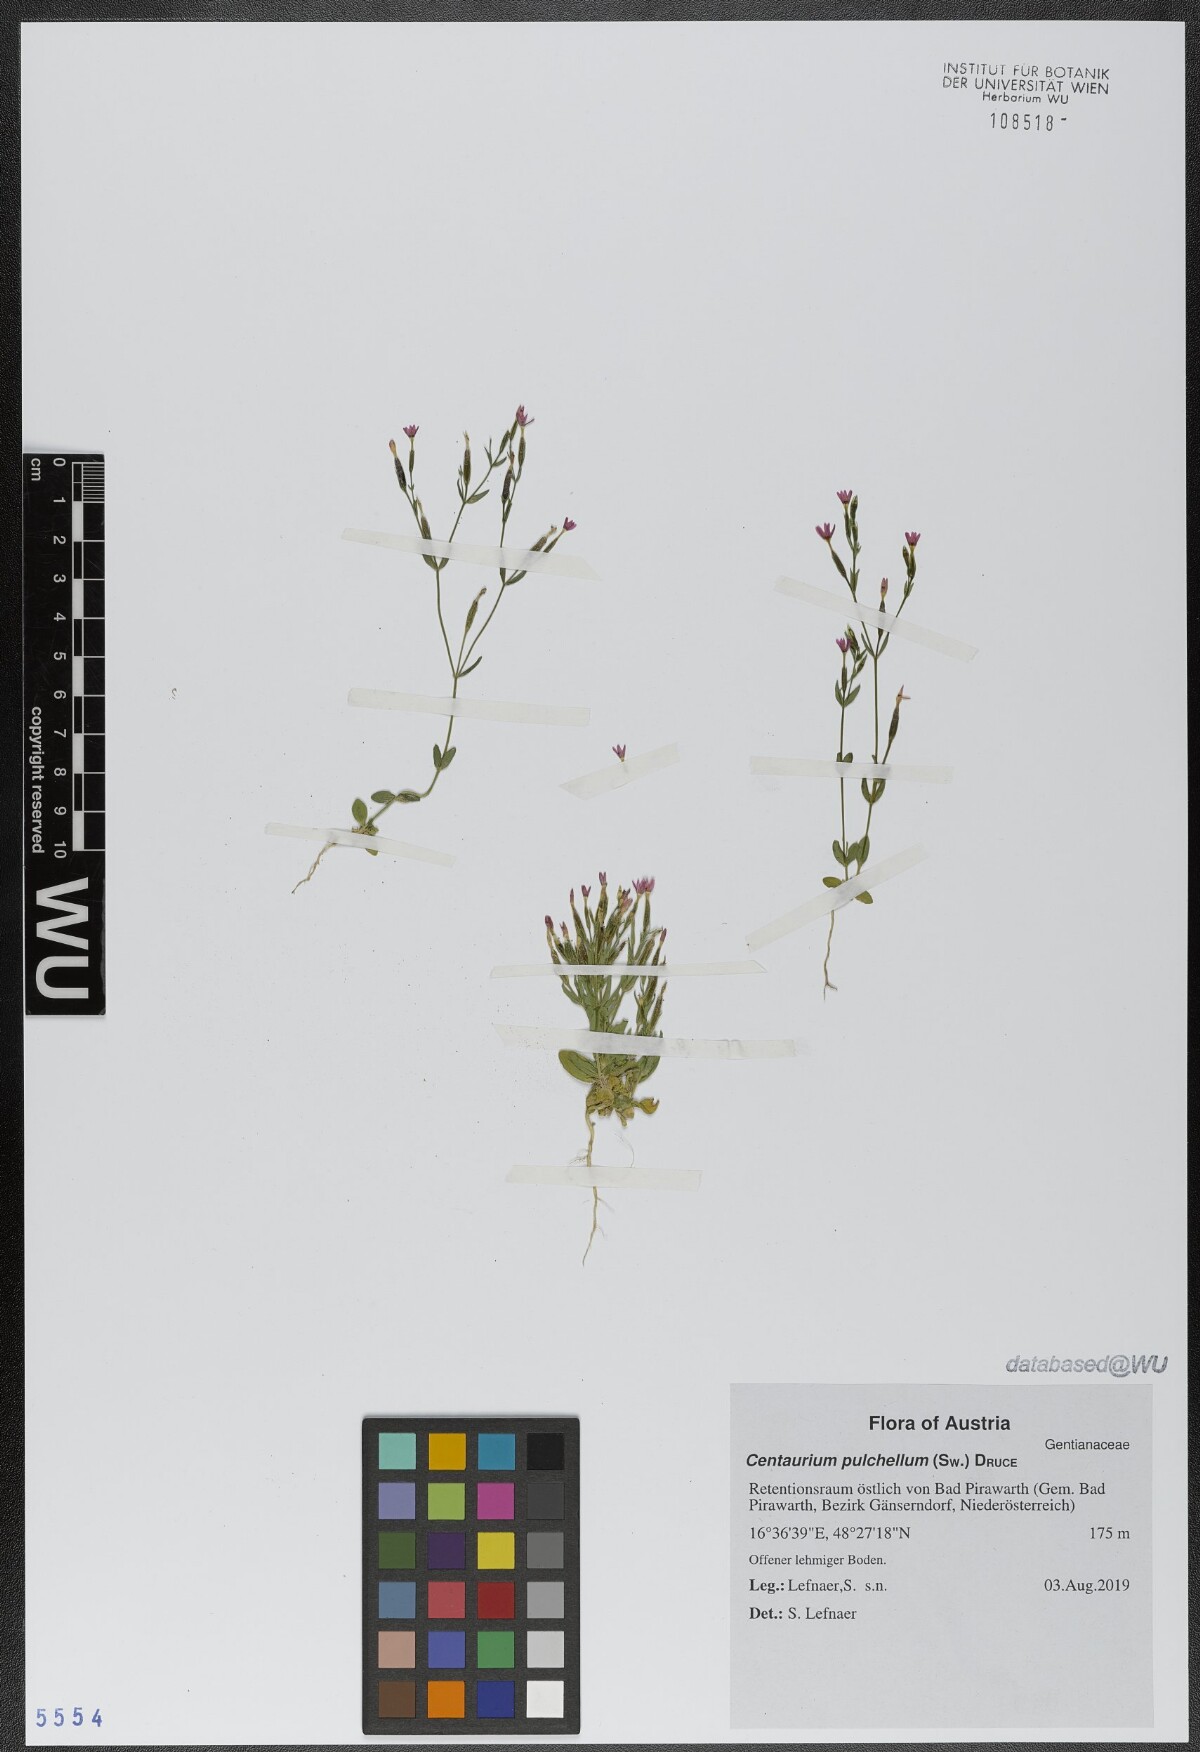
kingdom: Plantae
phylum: Tracheophyta
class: Magnoliopsida
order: Gentianales
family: Gentianaceae
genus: Centaurium
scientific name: Centaurium pulchellum
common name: Lesser centaury
